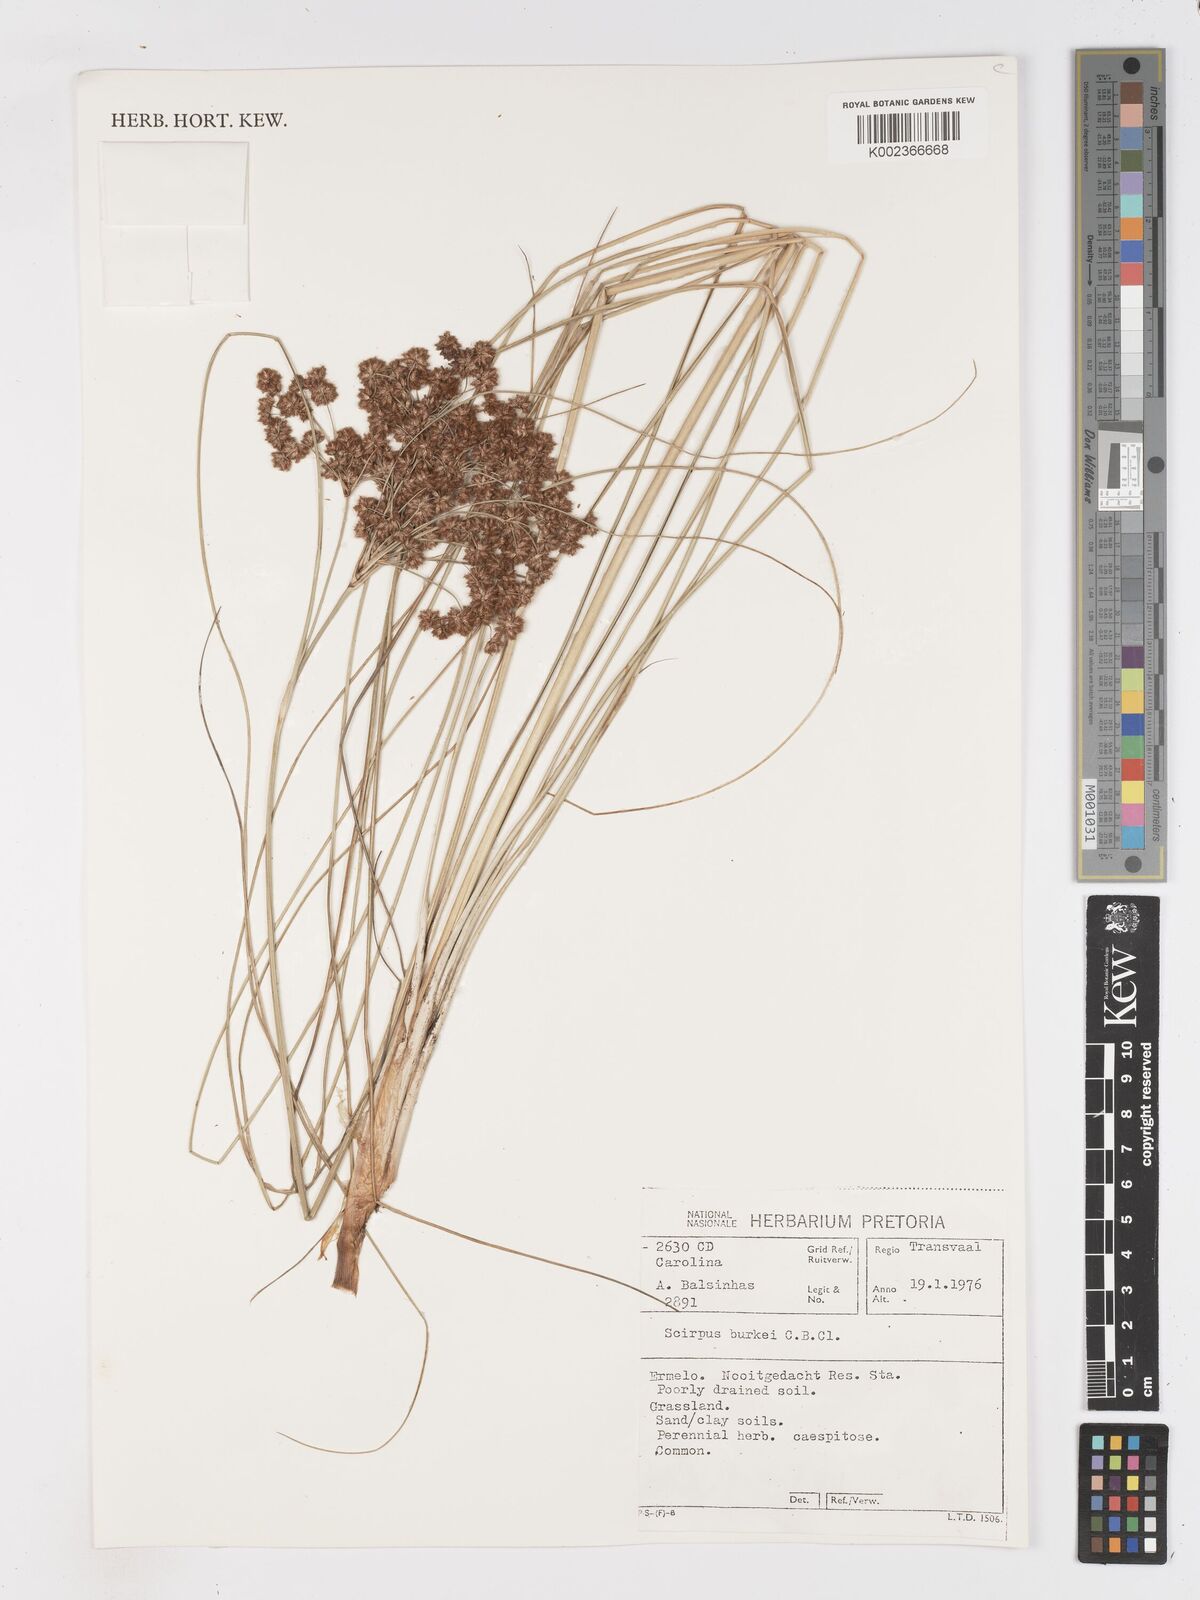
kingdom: Plantae
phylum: Tracheophyta
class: Liliopsida
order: Poales
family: Cyperaceae
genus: Scirpoides
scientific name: Scirpoides burkei
